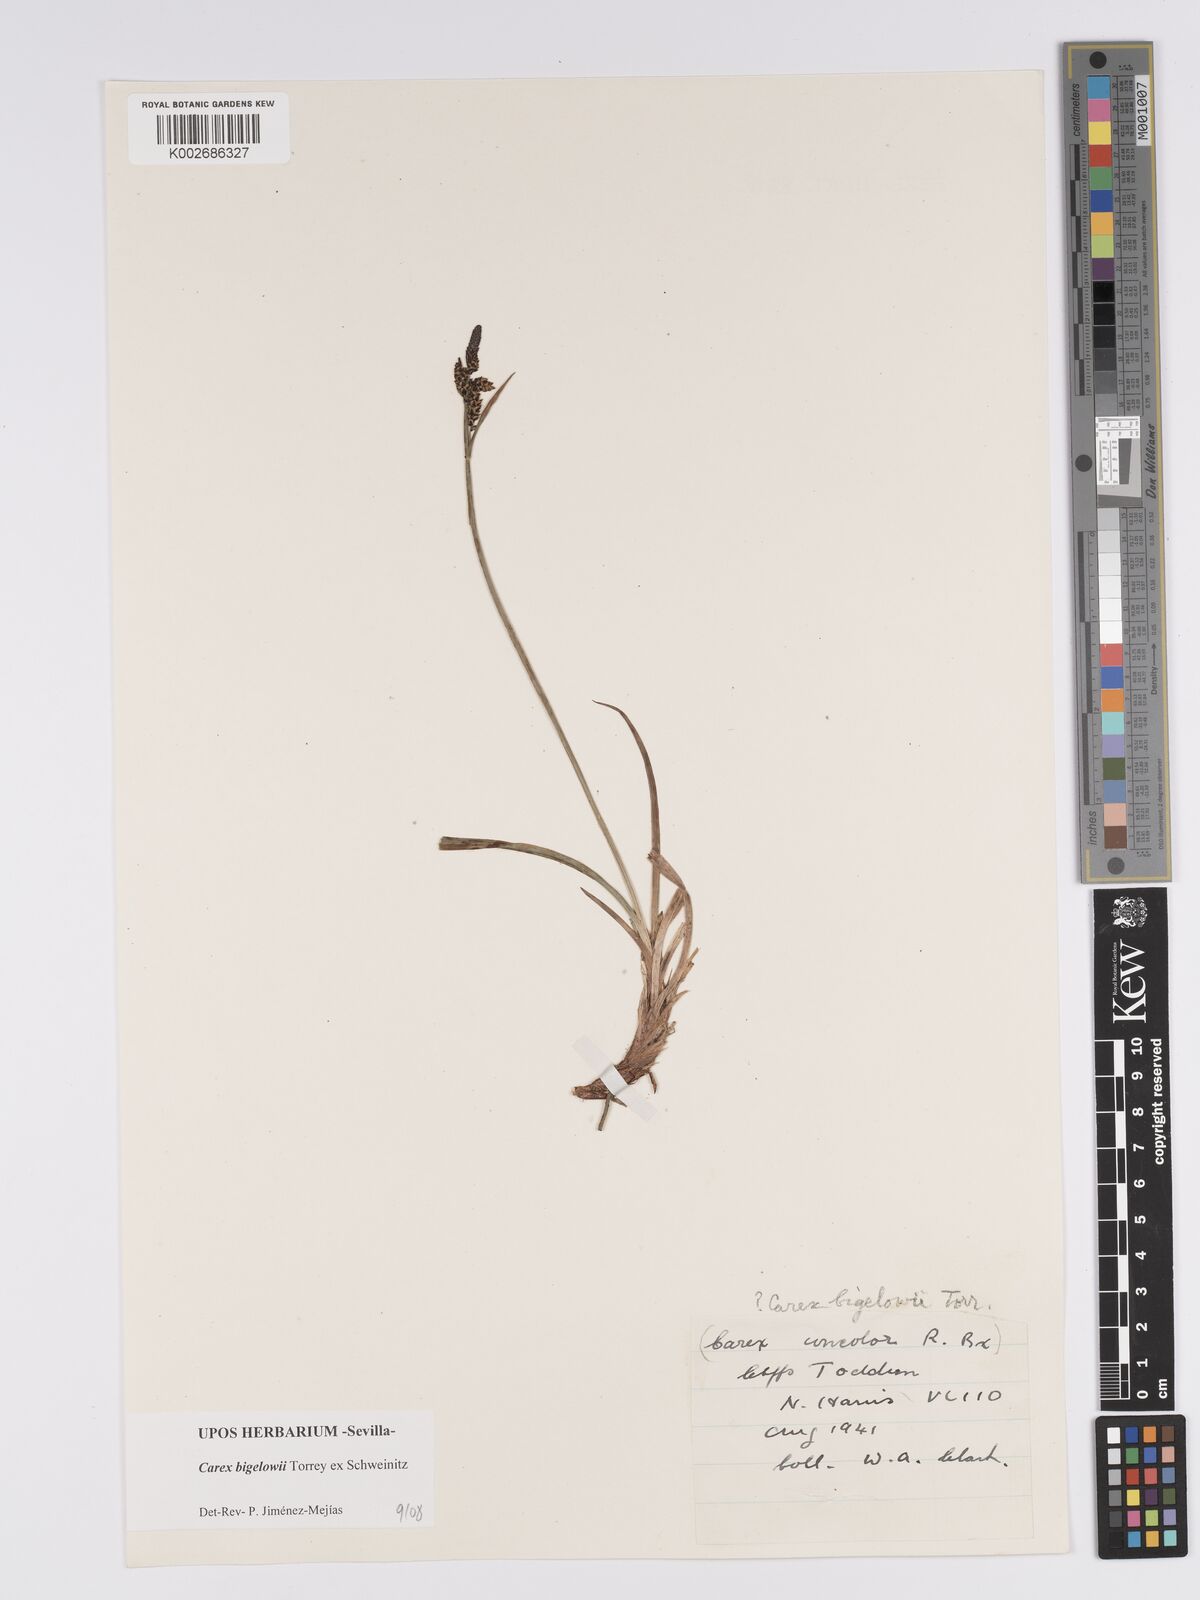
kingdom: Plantae
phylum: Tracheophyta
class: Liliopsida
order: Poales
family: Cyperaceae
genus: Carex
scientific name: Carex bigelowii
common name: Stiff sedge
